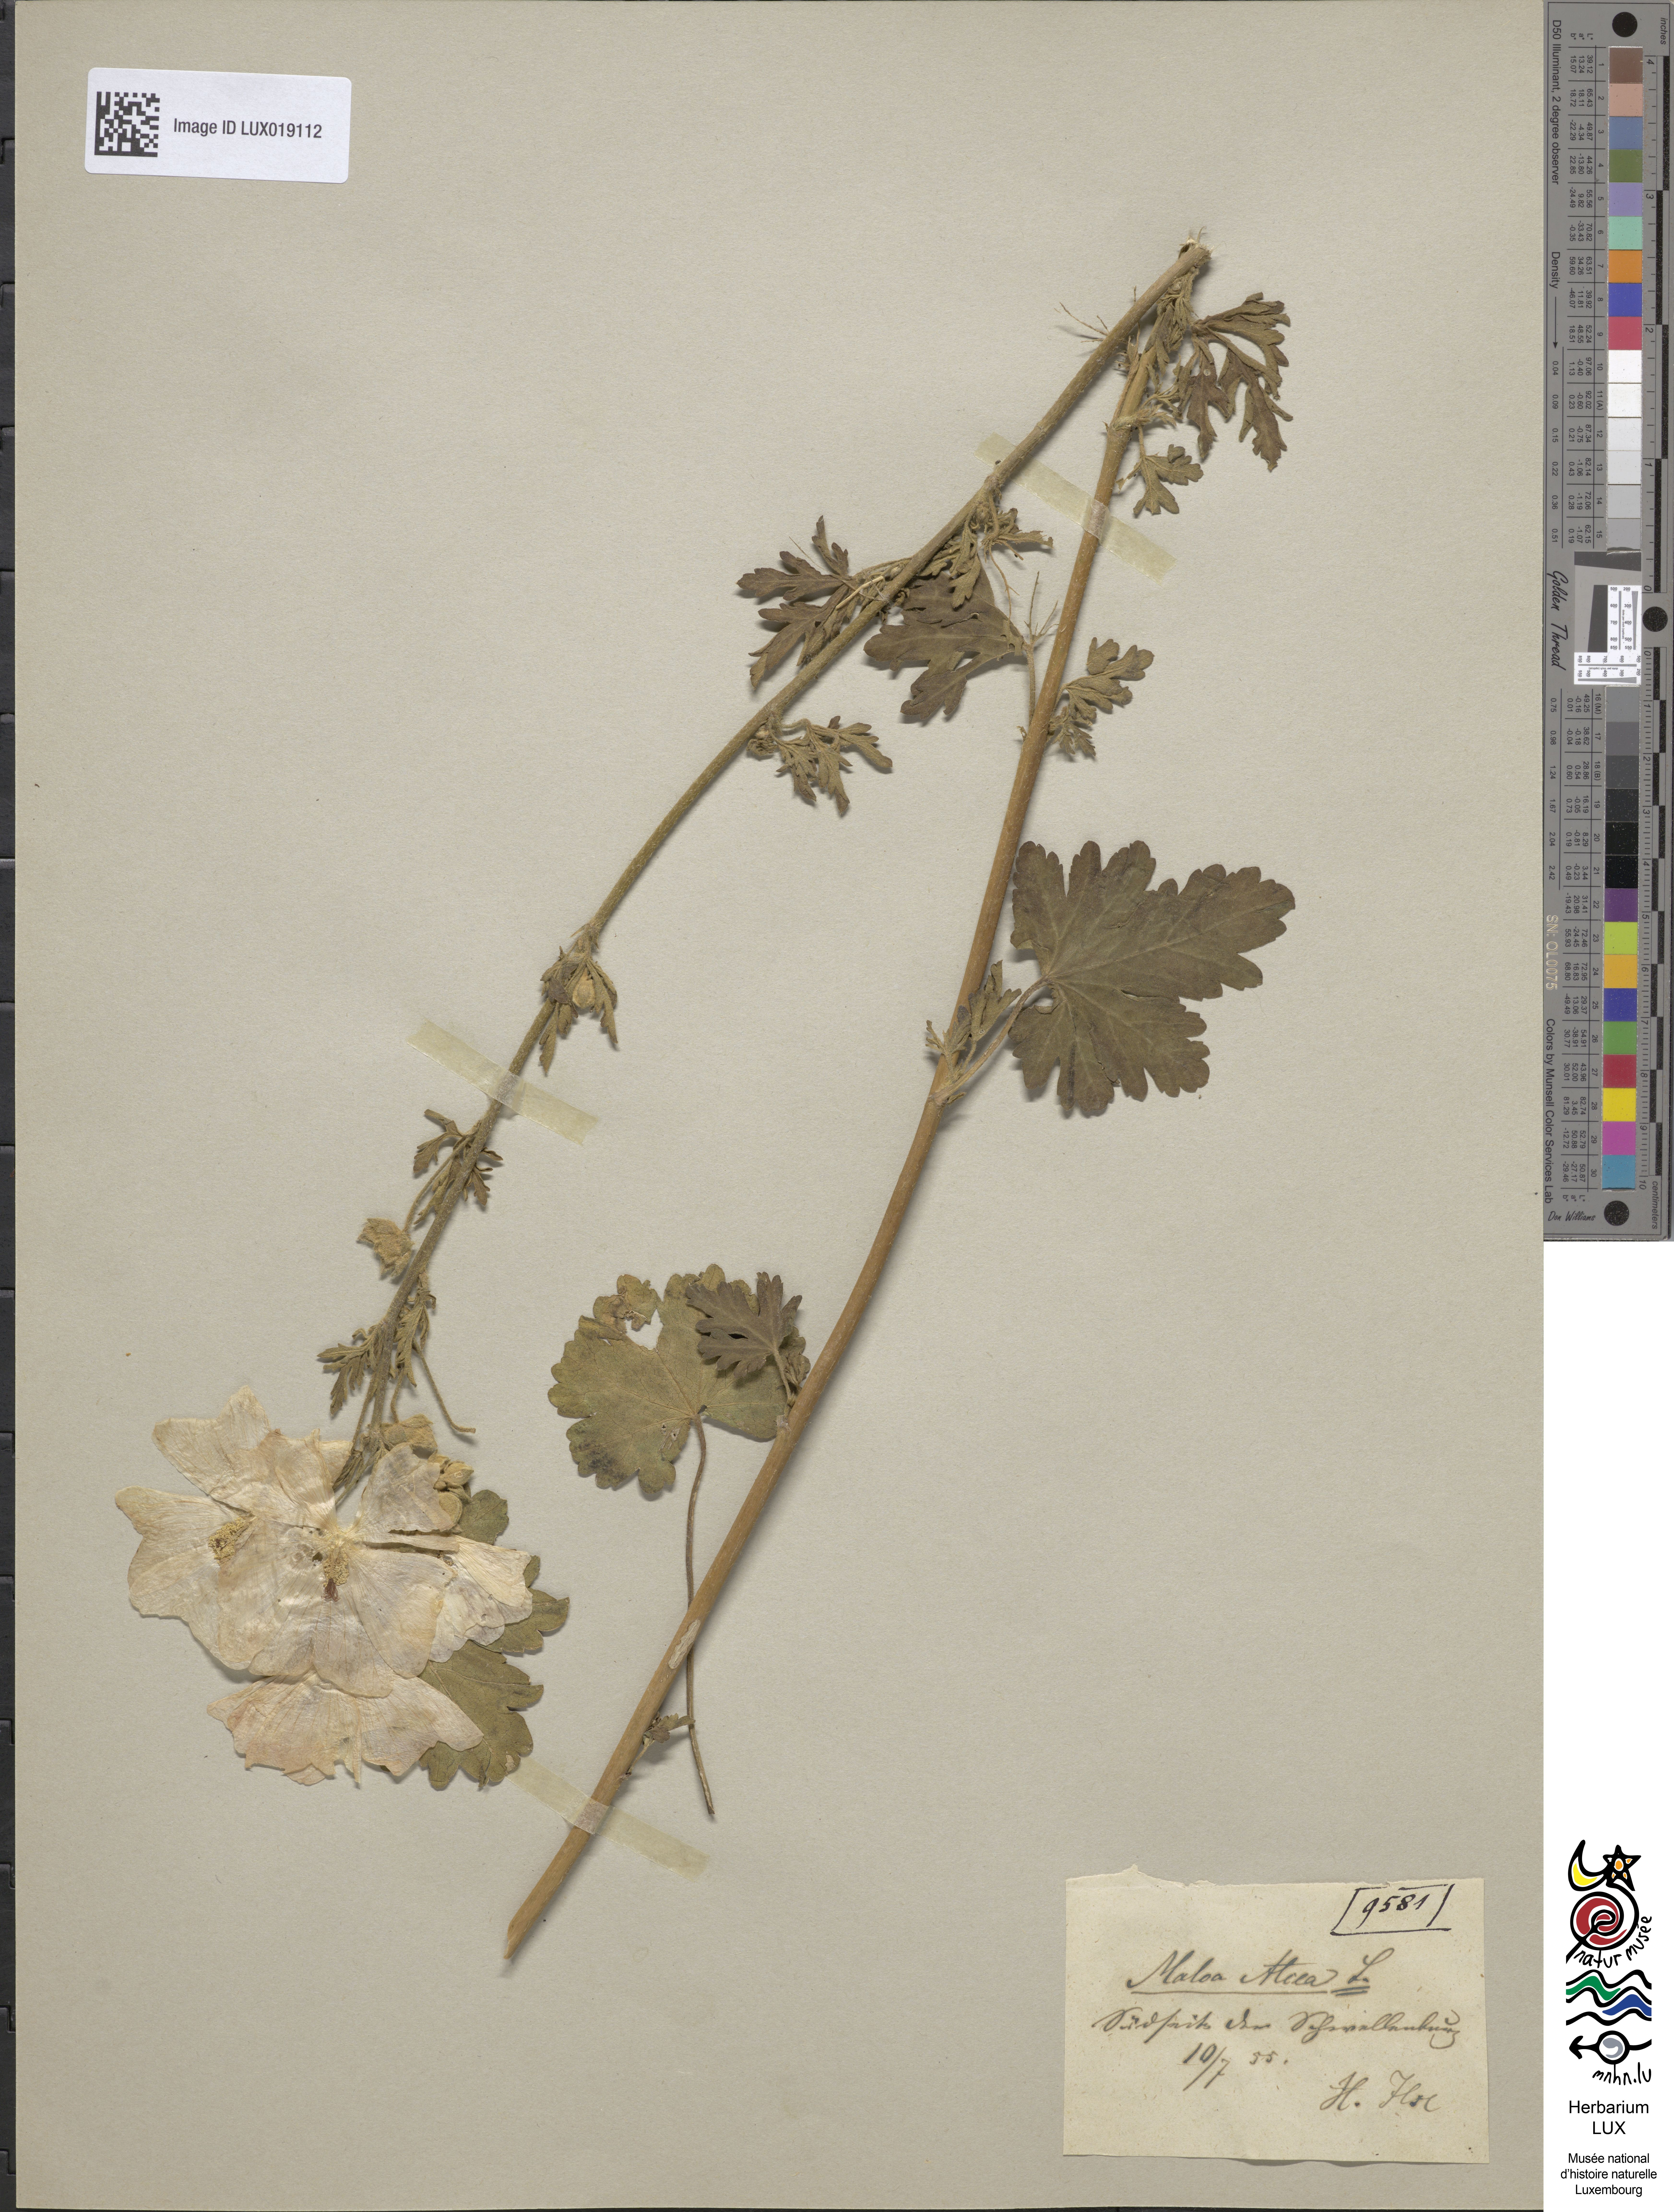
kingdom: Plantae
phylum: Tracheophyta
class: Magnoliopsida
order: Malvales
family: Malvaceae
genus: Malva
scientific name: Malva alcea
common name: Greater musk-mallow
